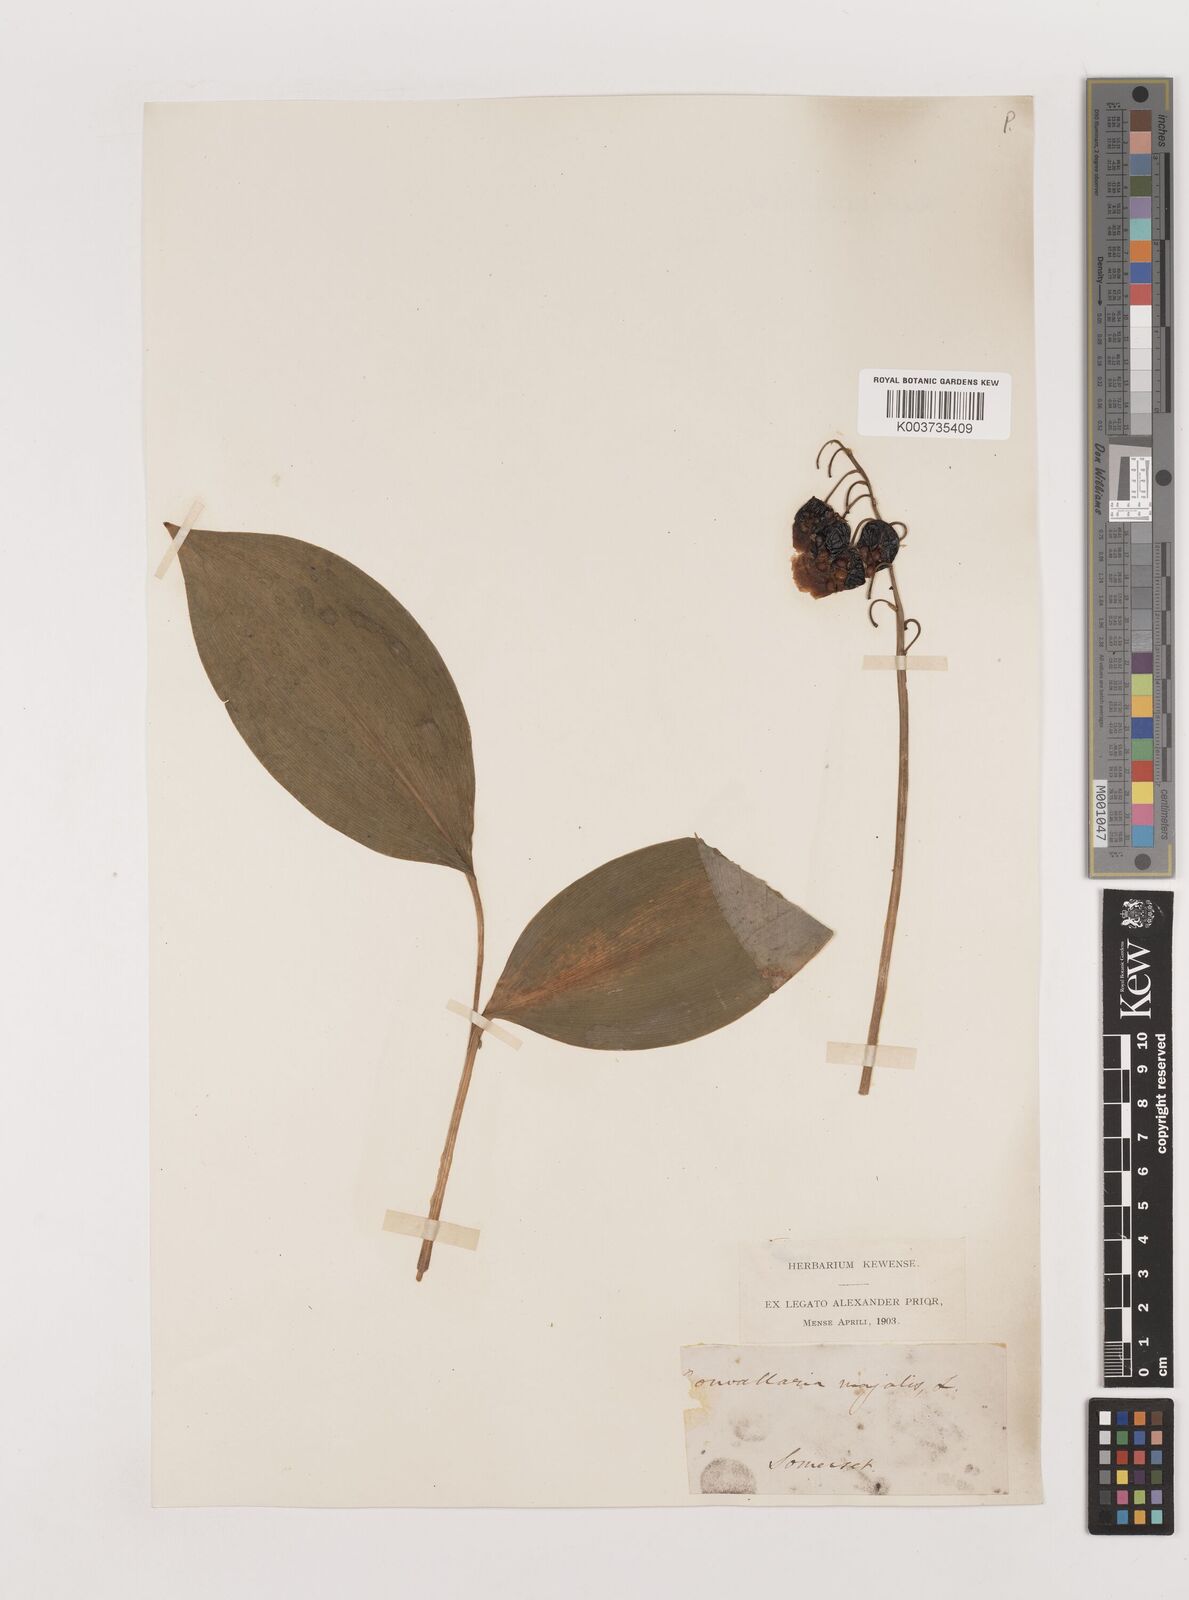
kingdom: Plantae
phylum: Tracheophyta
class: Liliopsida
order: Asparagales
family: Asparagaceae
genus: Convallaria
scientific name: Convallaria majalis
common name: Lily-of-the-valley
